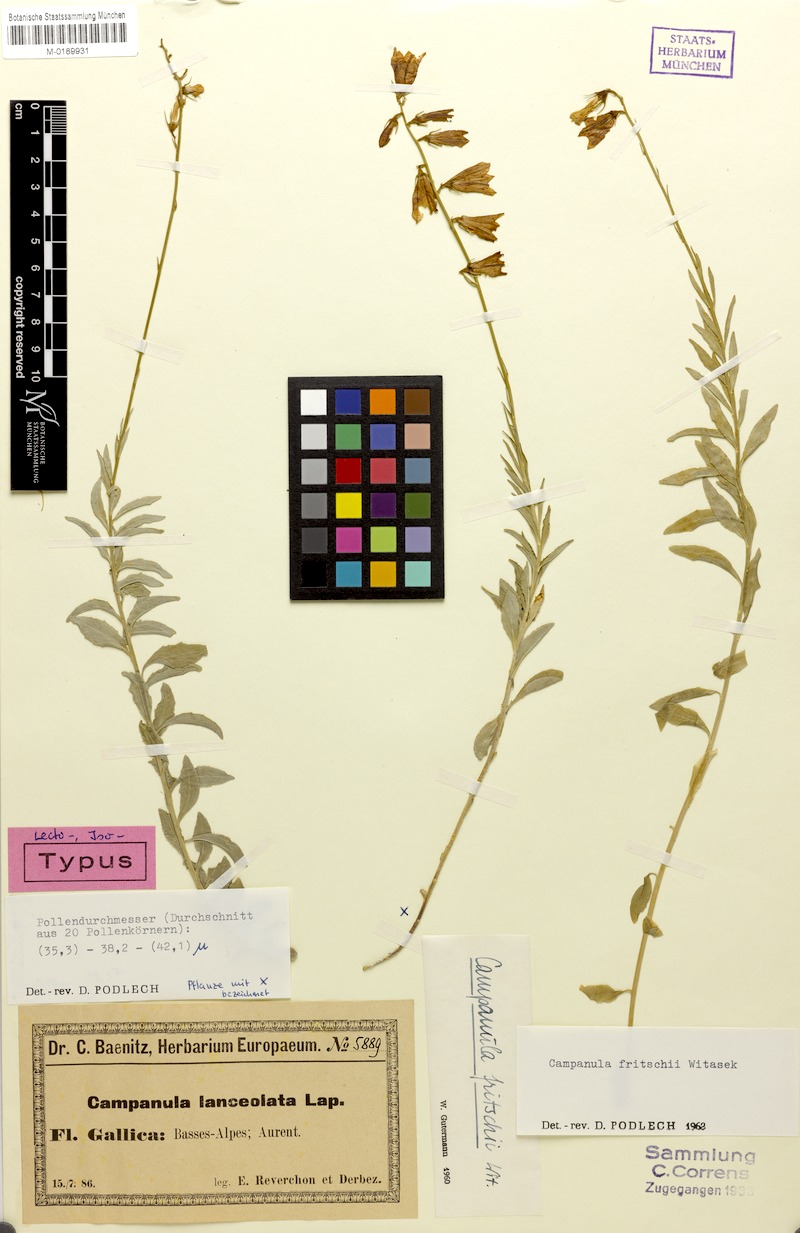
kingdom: Plantae
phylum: Tracheophyta
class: Magnoliopsida
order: Asterales
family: Campanulaceae
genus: Campanula
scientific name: Campanula fritschii
